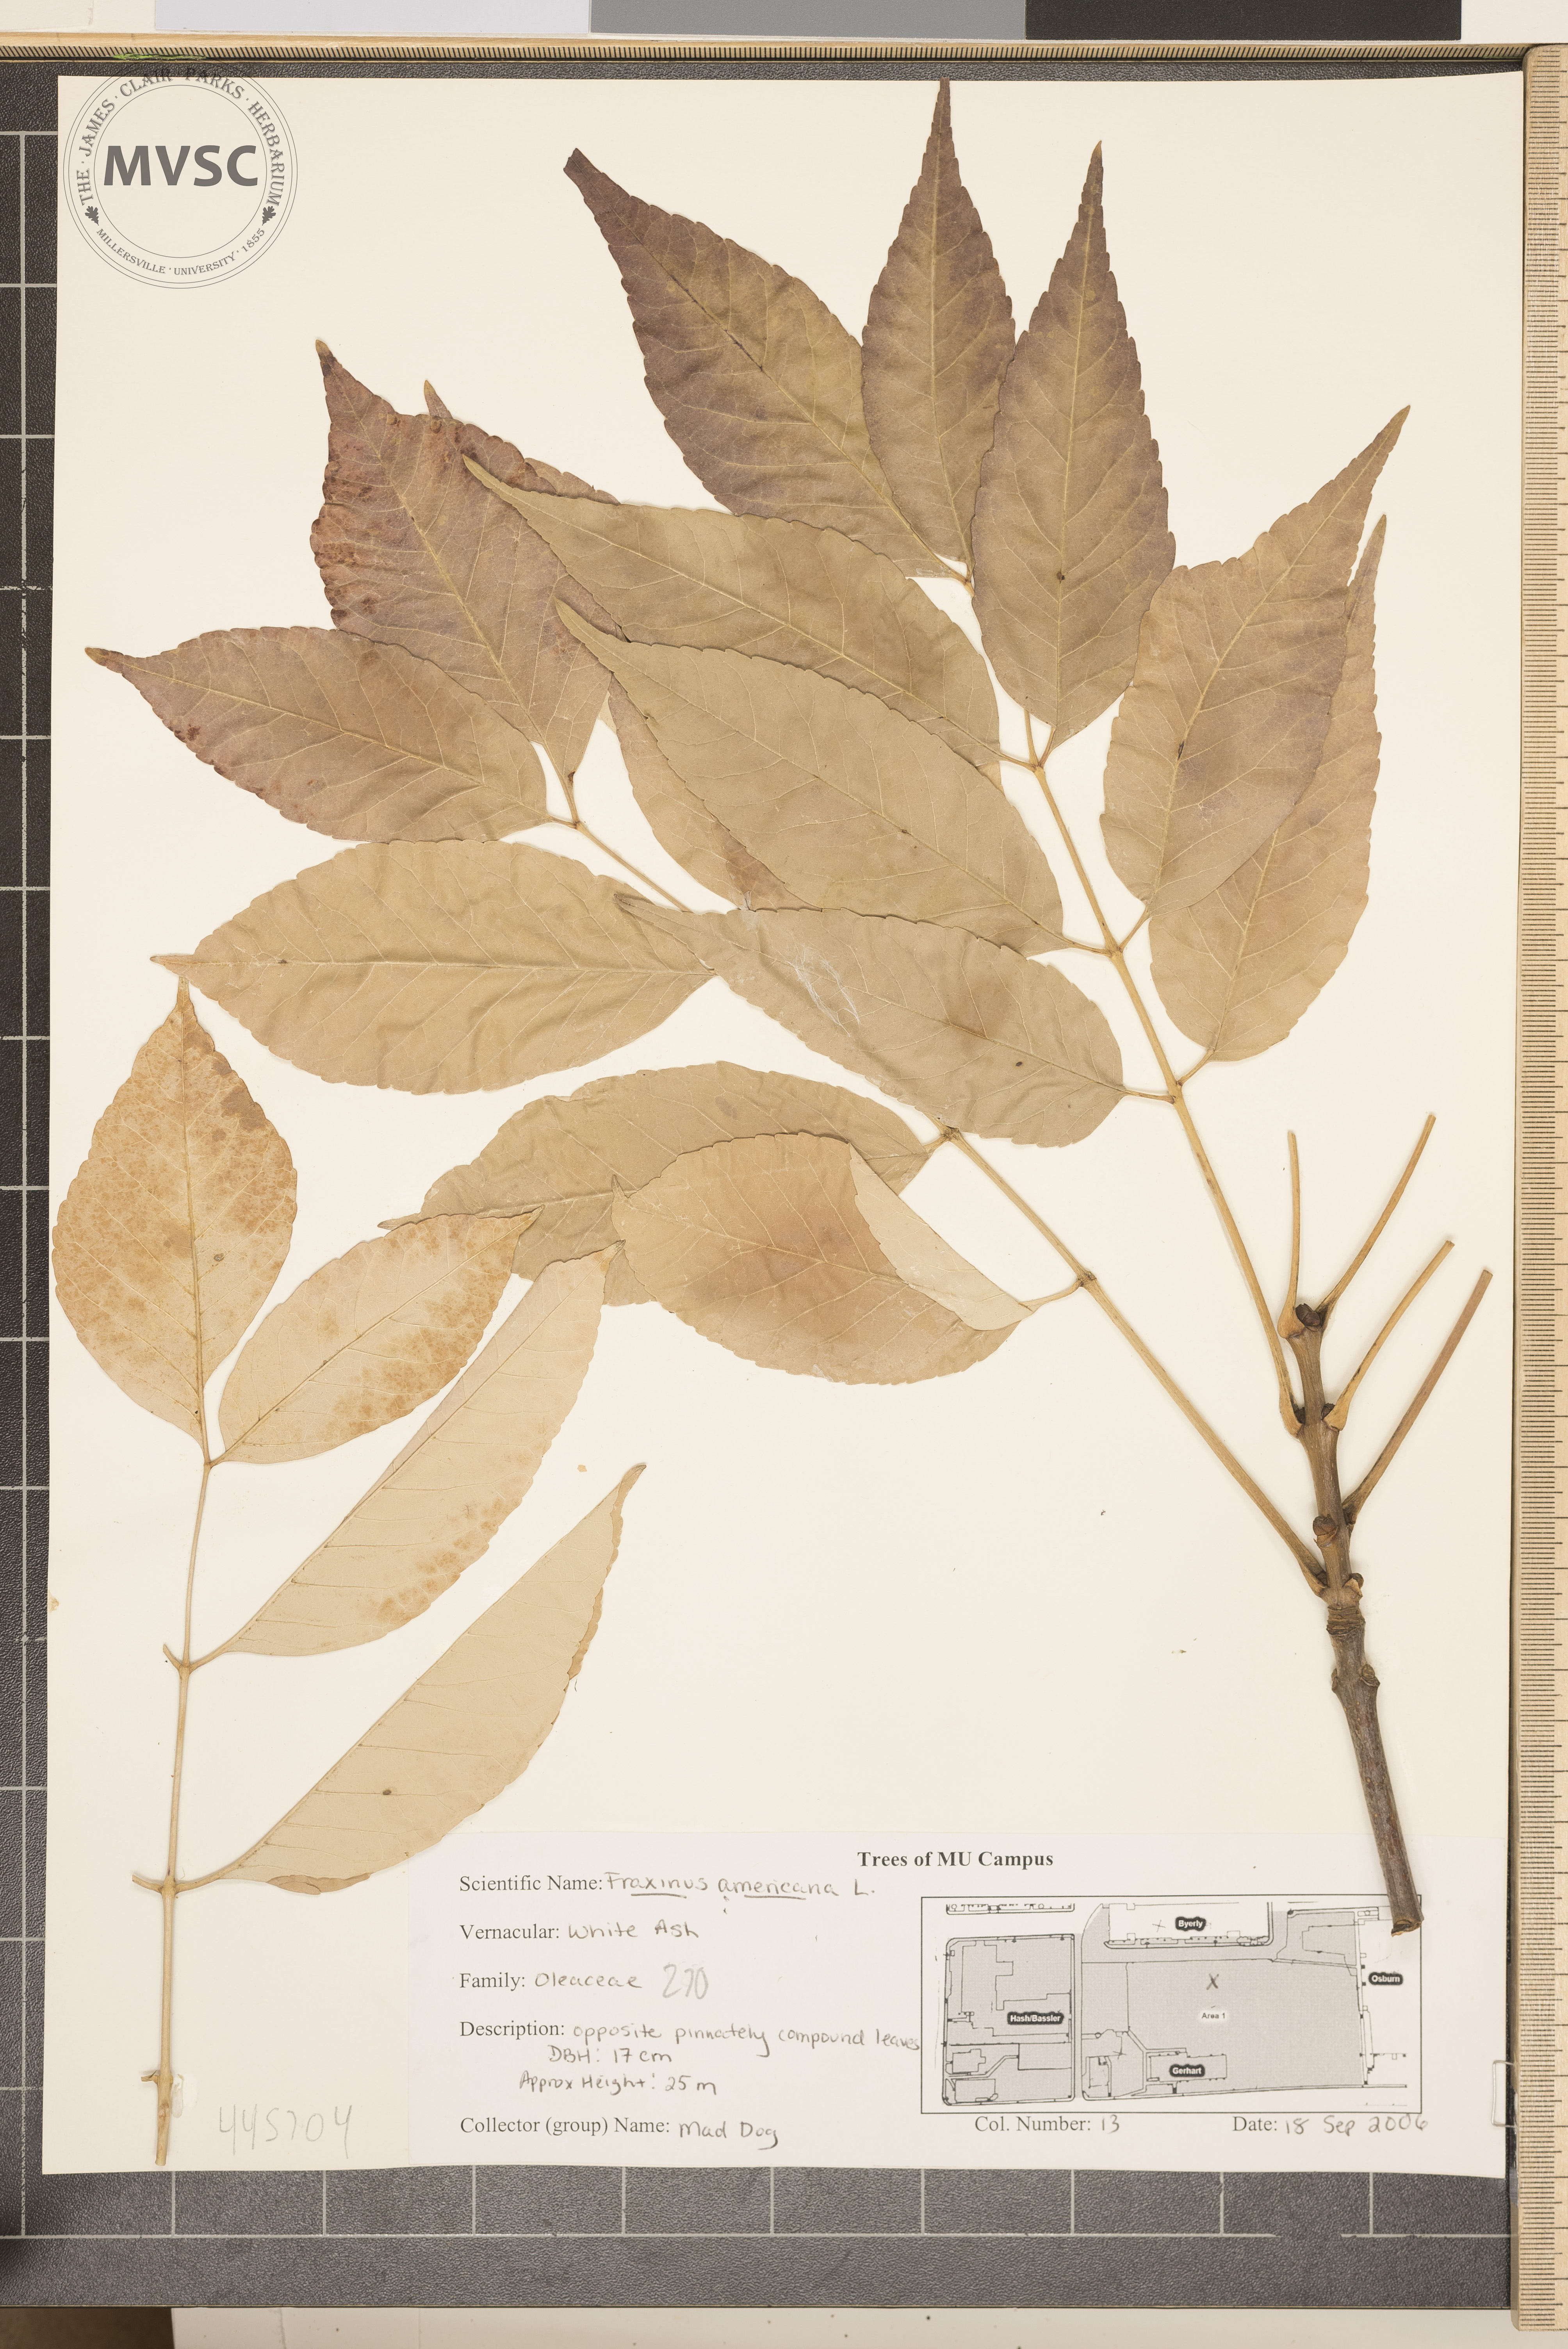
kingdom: Plantae
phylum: Tracheophyta
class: Magnoliopsida
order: Lamiales
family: Oleaceae
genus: Fraxinus
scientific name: Fraxinus americana
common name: White ash
